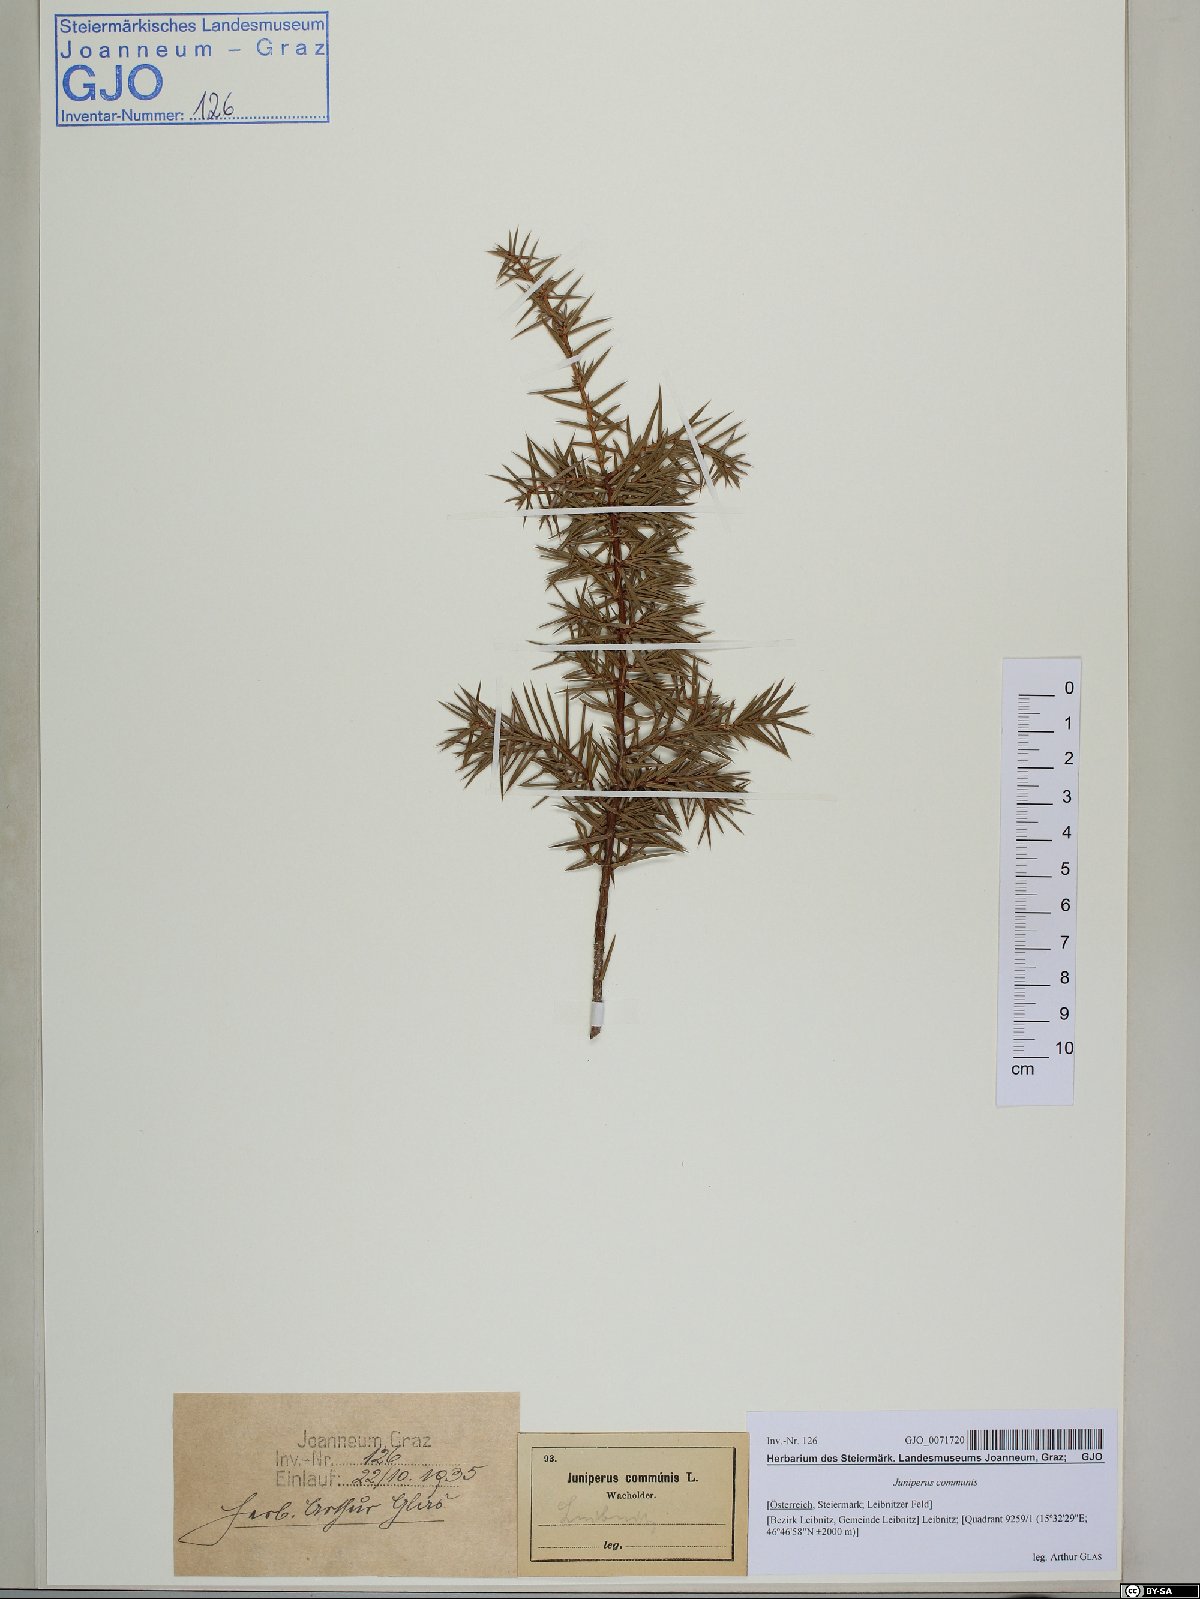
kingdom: Plantae
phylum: Tracheophyta
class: Pinopsida
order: Pinales
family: Cupressaceae
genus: Juniperus
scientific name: Juniperus communis
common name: Common juniper
